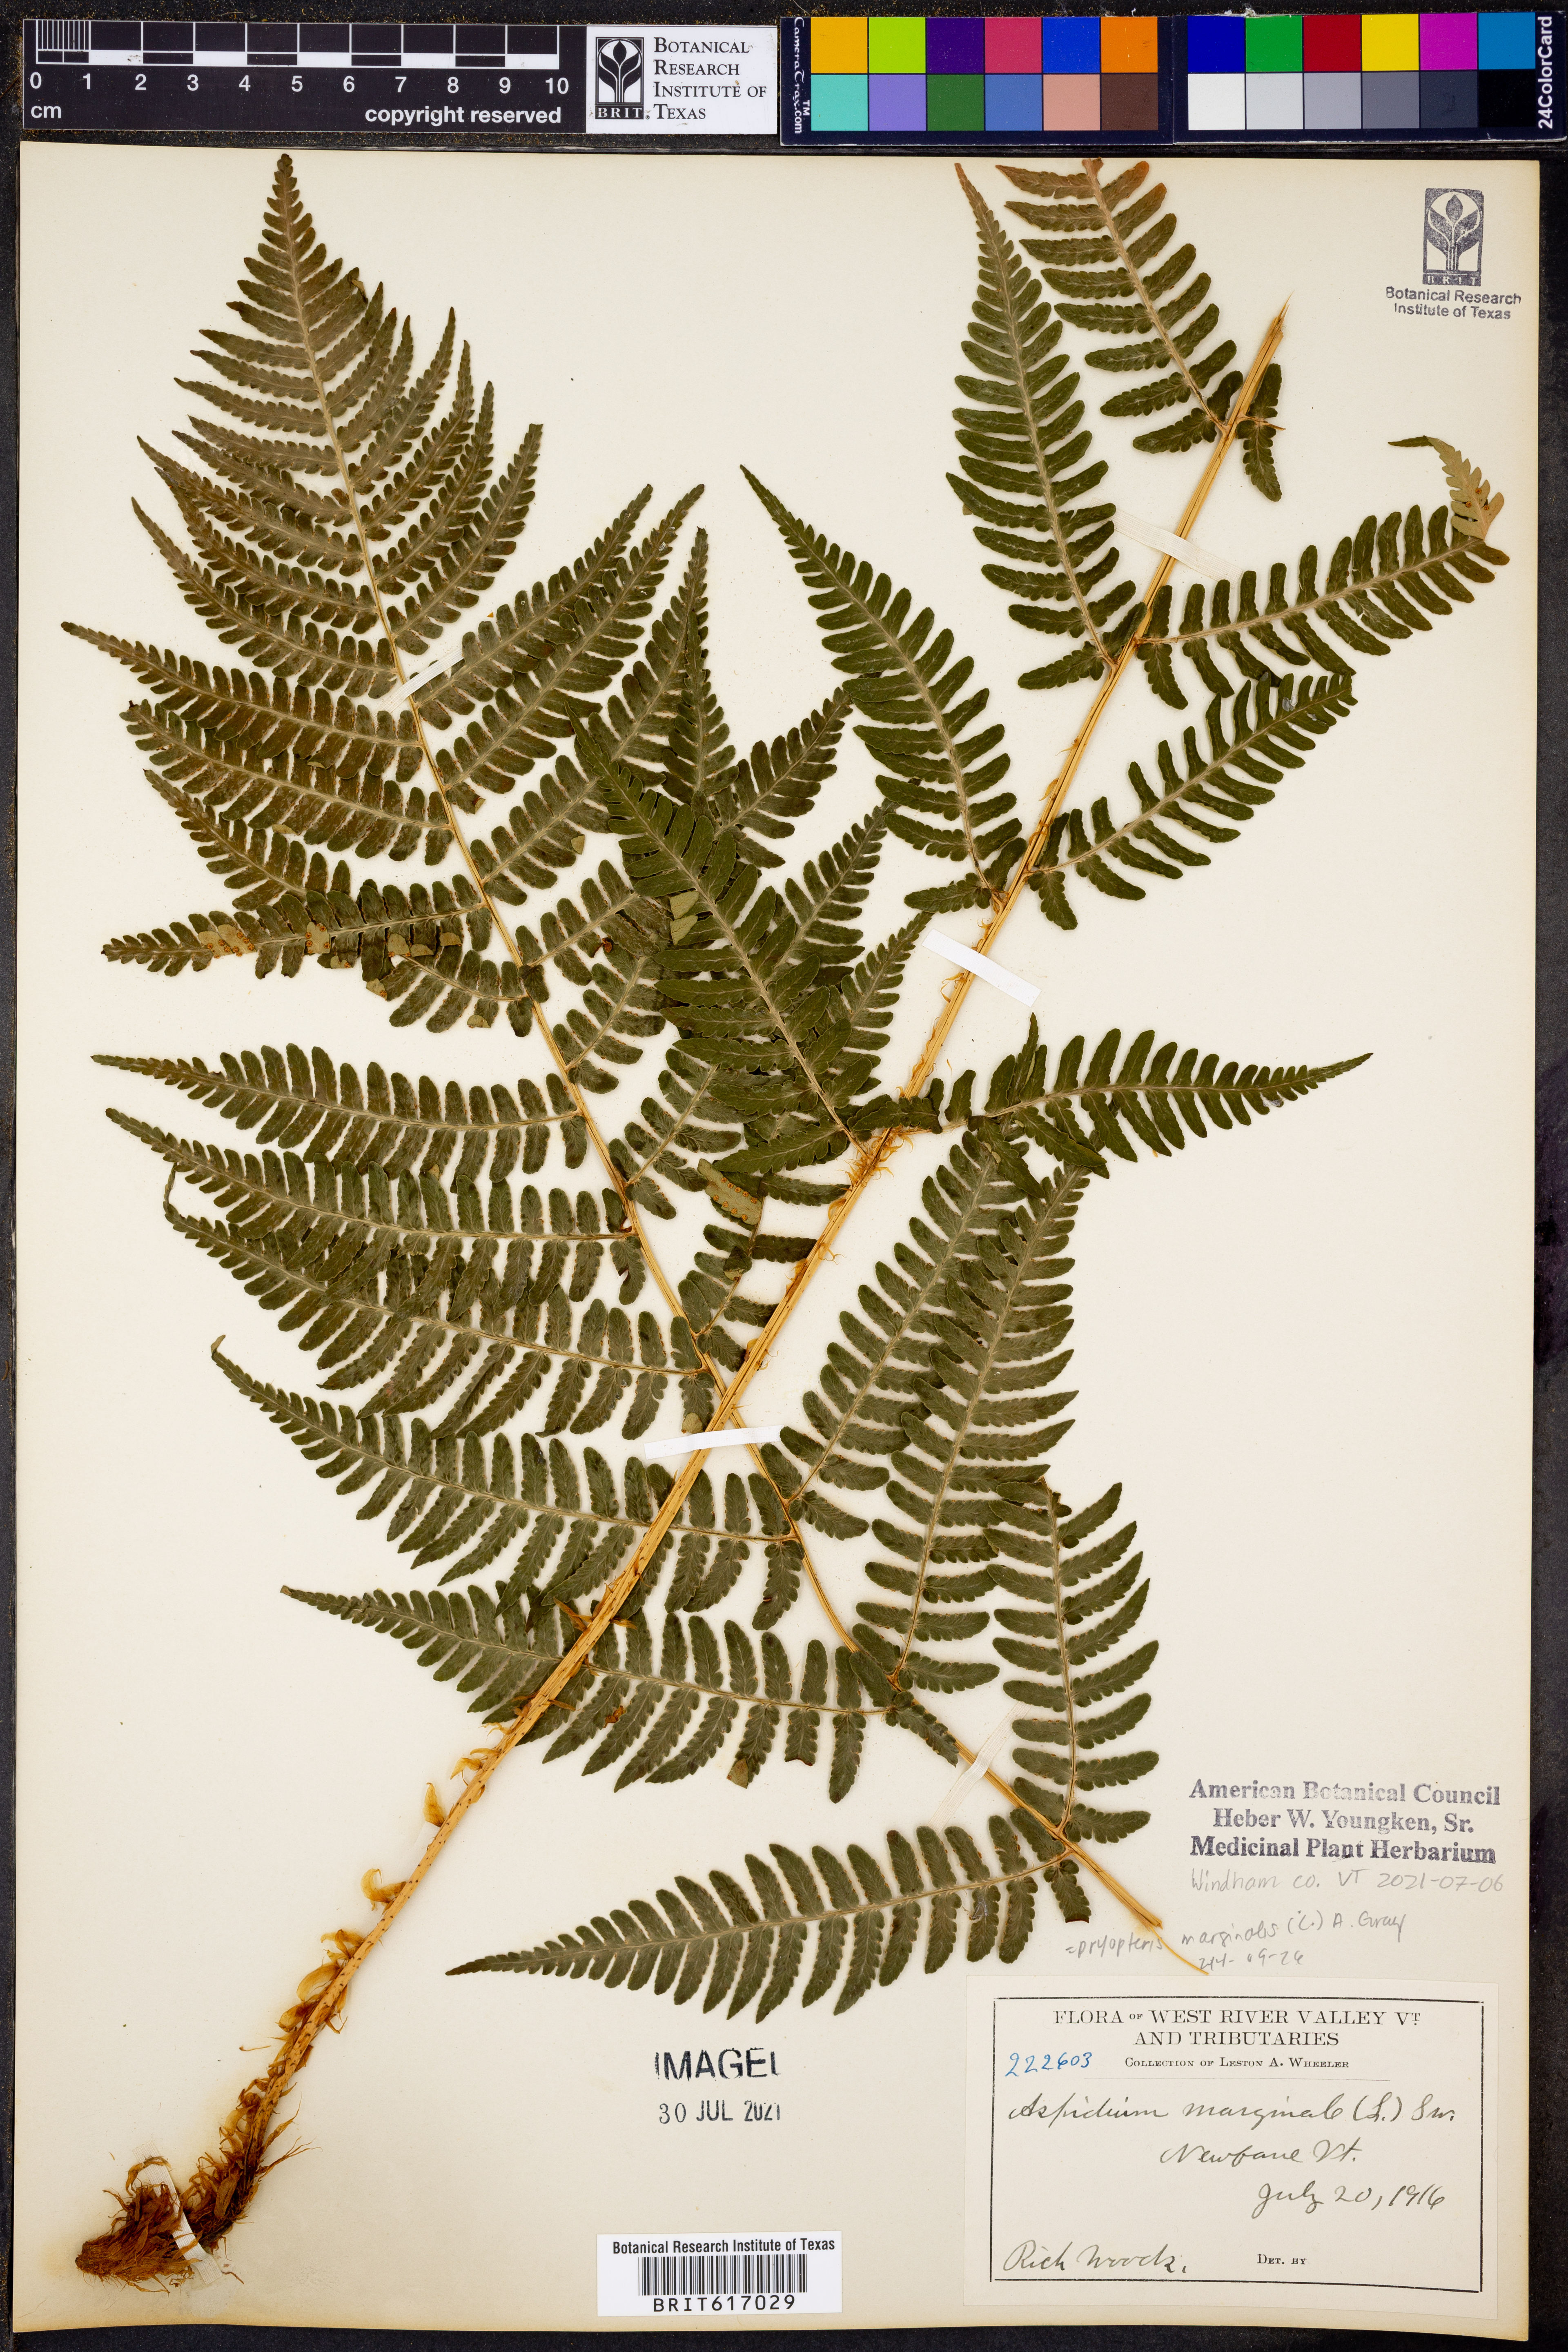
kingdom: Plantae
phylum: Tracheophyta
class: Polypodiopsida
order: Polypodiales
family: Dryopteridaceae
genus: Dryopteris
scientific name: Dryopteris marginalis
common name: Marginal wood fern
